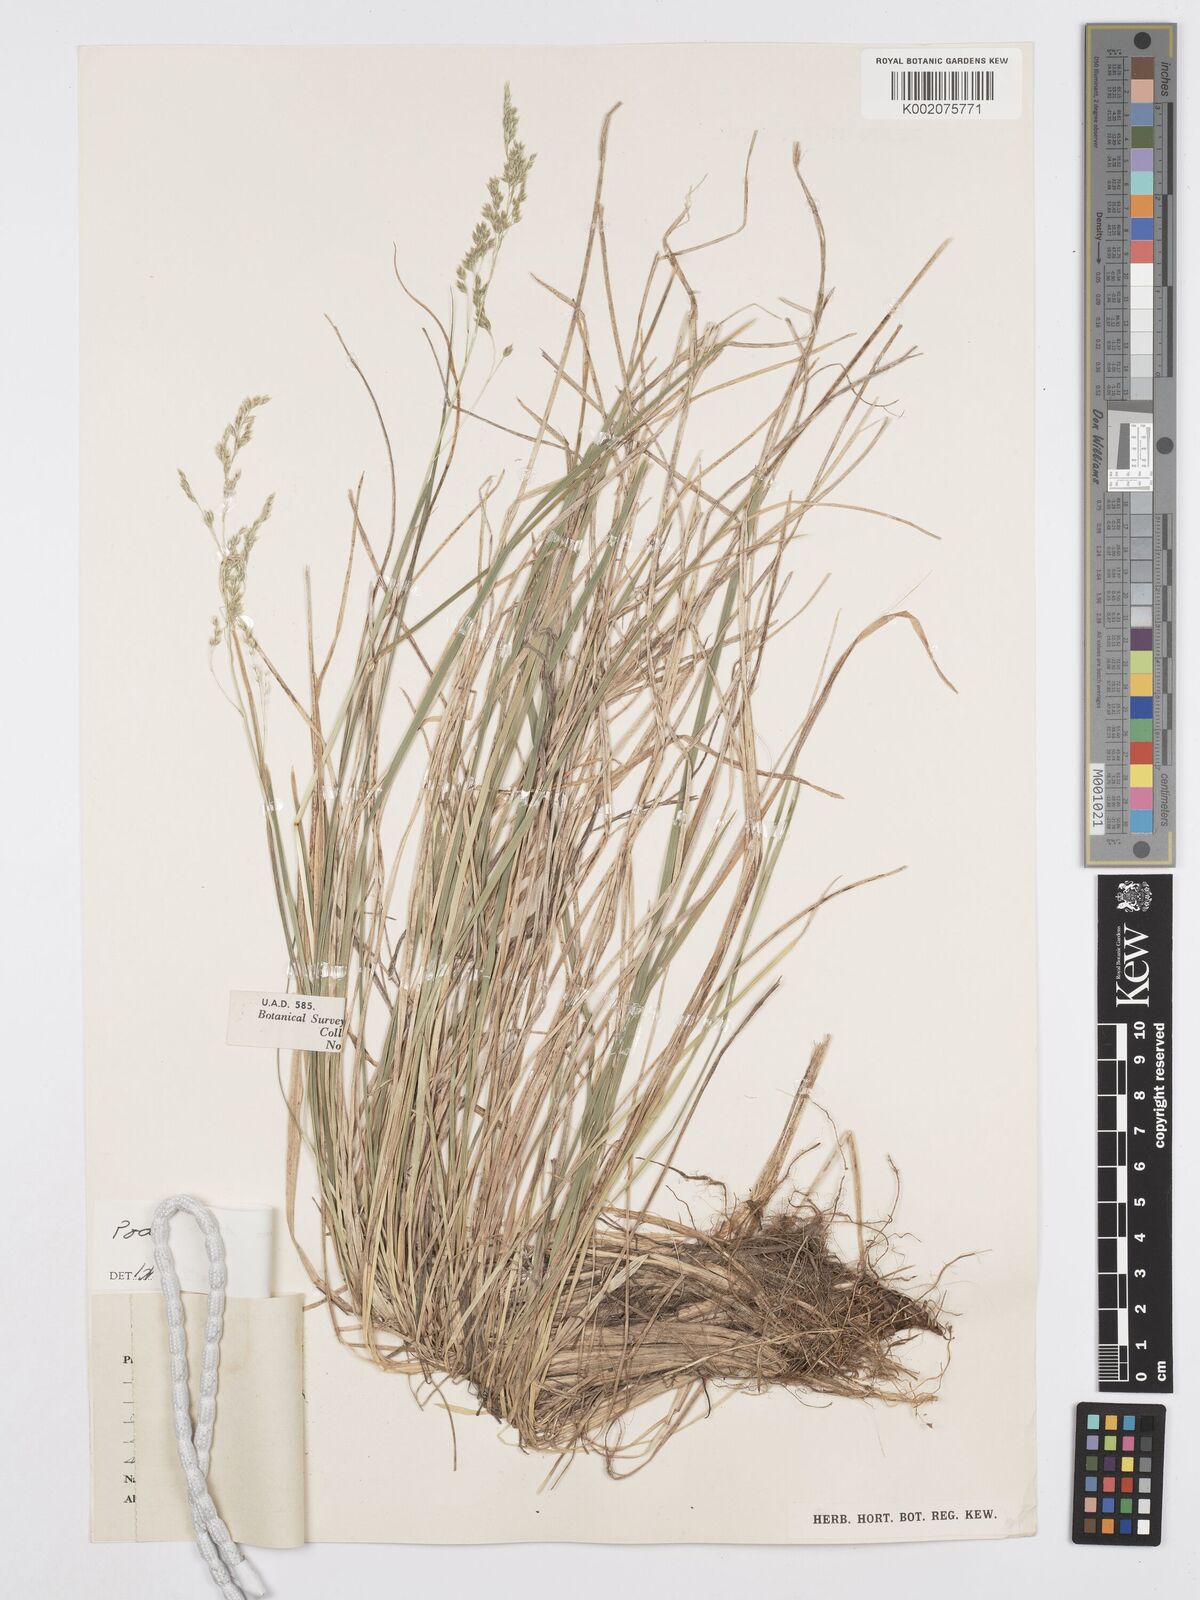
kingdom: Plantae
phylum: Tracheophyta
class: Liliopsida
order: Poales
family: Poaceae
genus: Poa
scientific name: Poa binata
